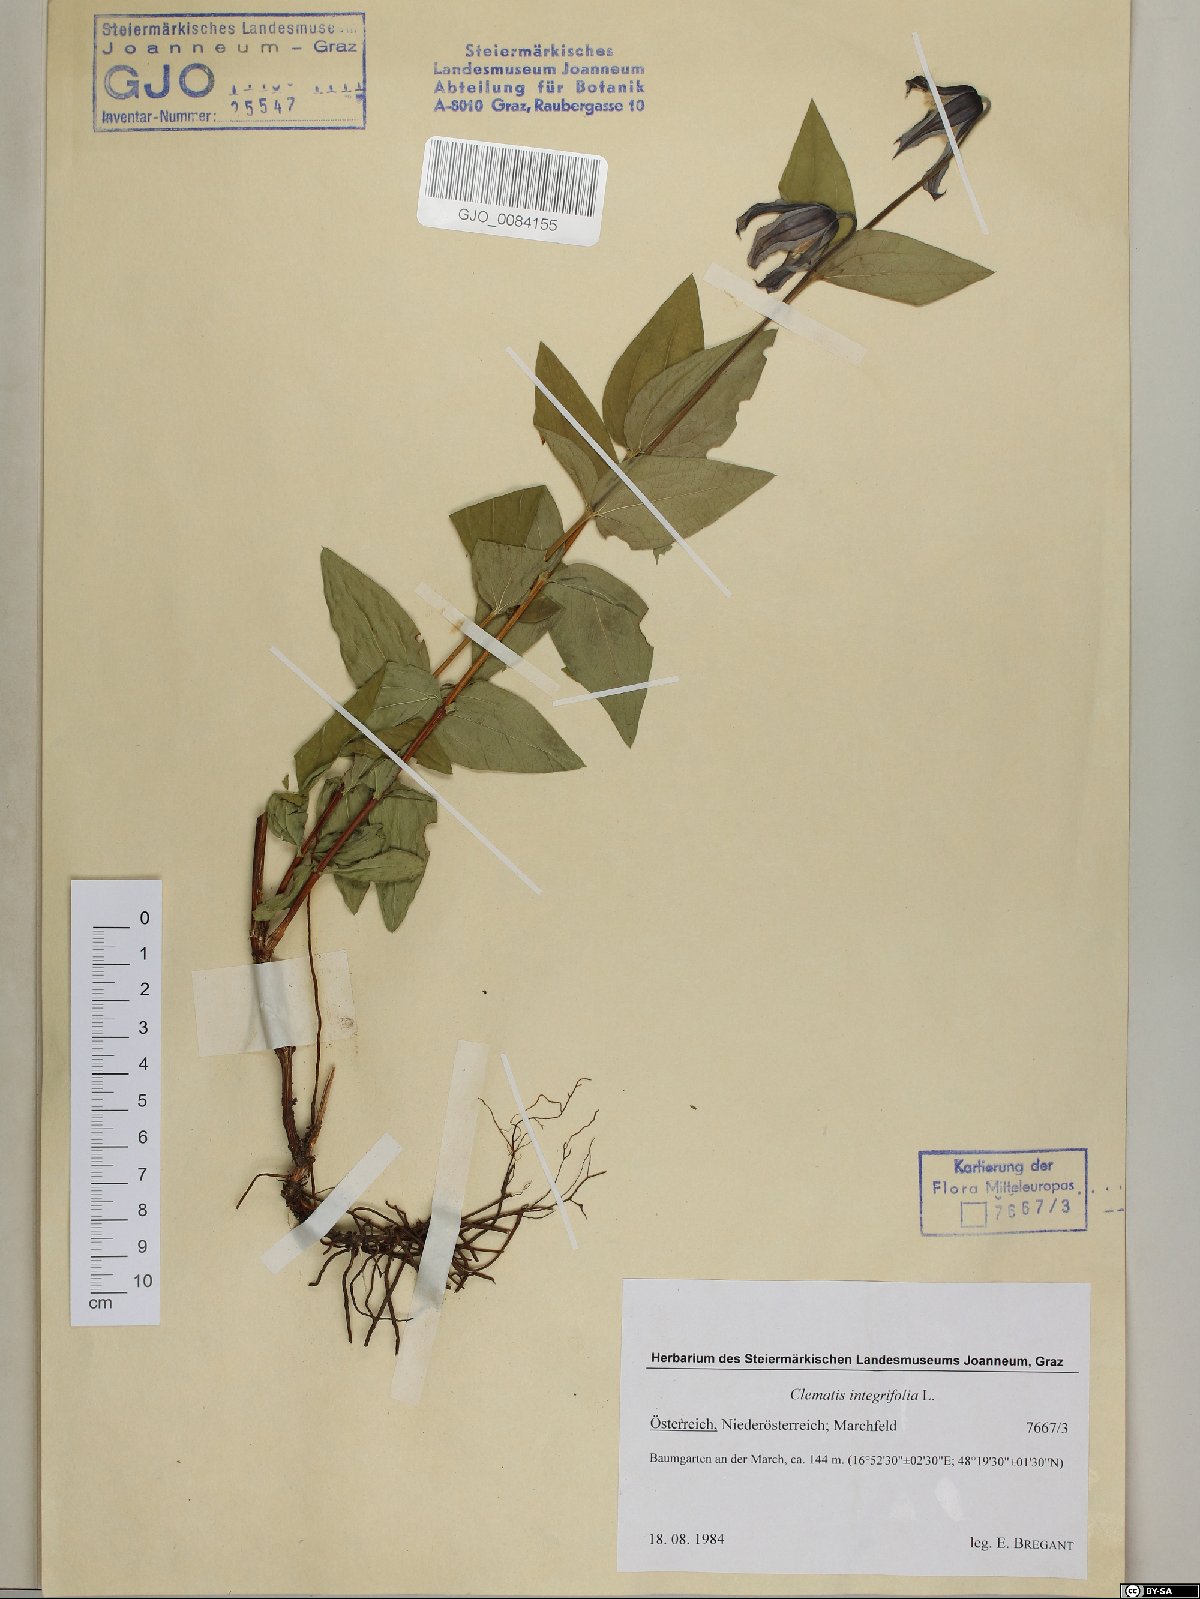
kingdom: Plantae
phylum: Tracheophyta
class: Magnoliopsida
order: Ranunculales
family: Ranunculaceae
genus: Clematis
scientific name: Clematis integrifolia
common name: Solitary clematis
